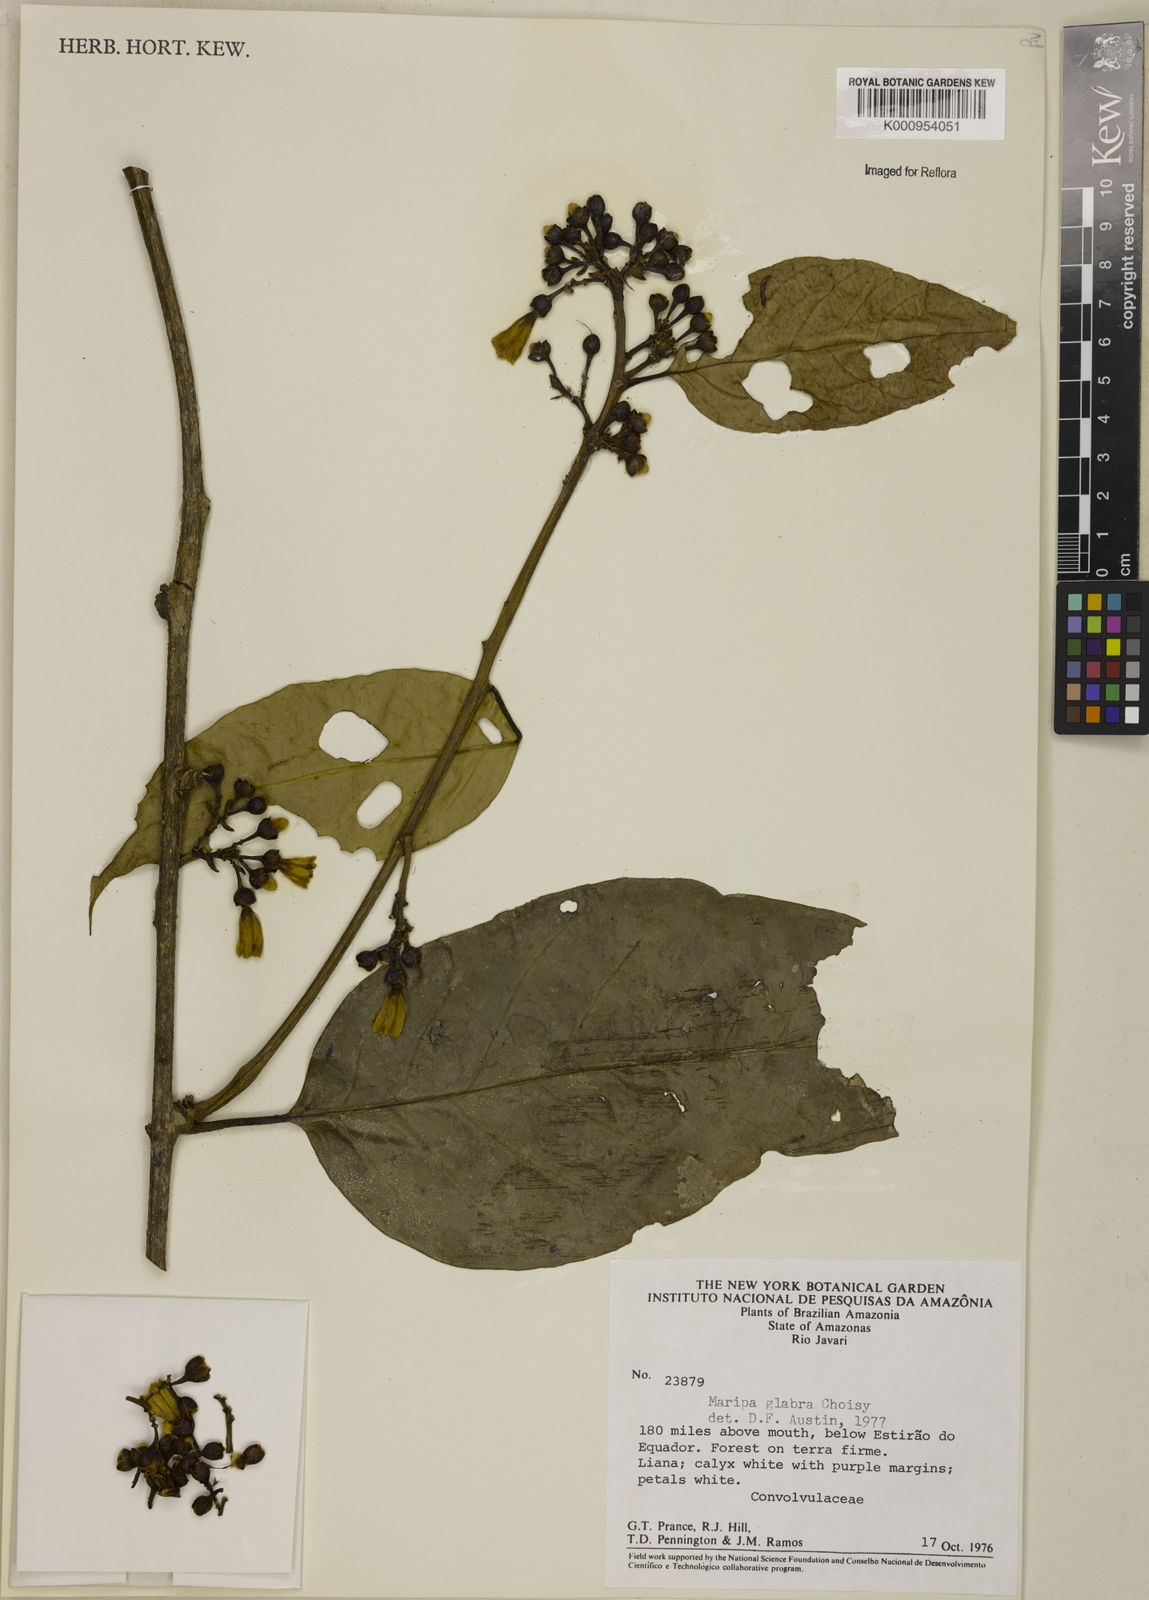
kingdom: Plantae
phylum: Tracheophyta
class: Magnoliopsida
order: Solanales
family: Convolvulaceae
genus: Maripa
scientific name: Maripa glabra
